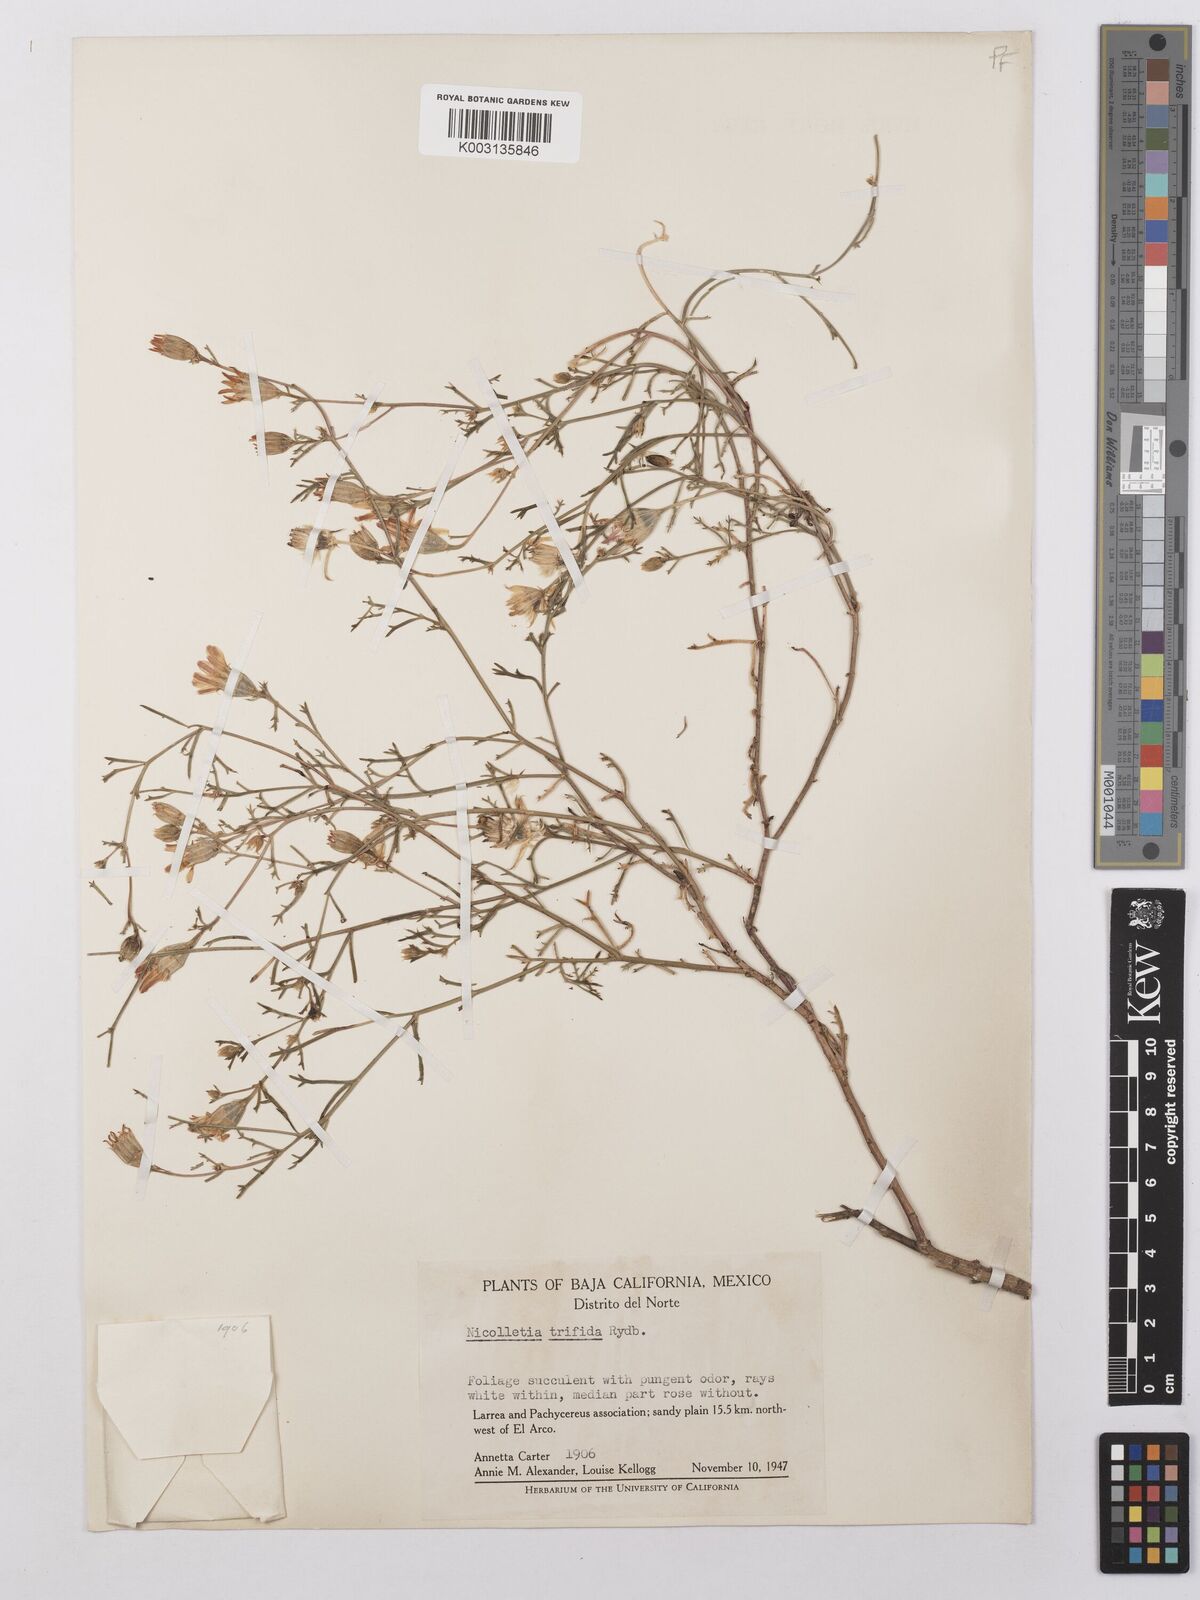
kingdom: Plantae
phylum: Tracheophyta
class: Magnoliopsida
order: Asterales
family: Asteraceae
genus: Nicolletia
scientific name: Nicolletia trifida
